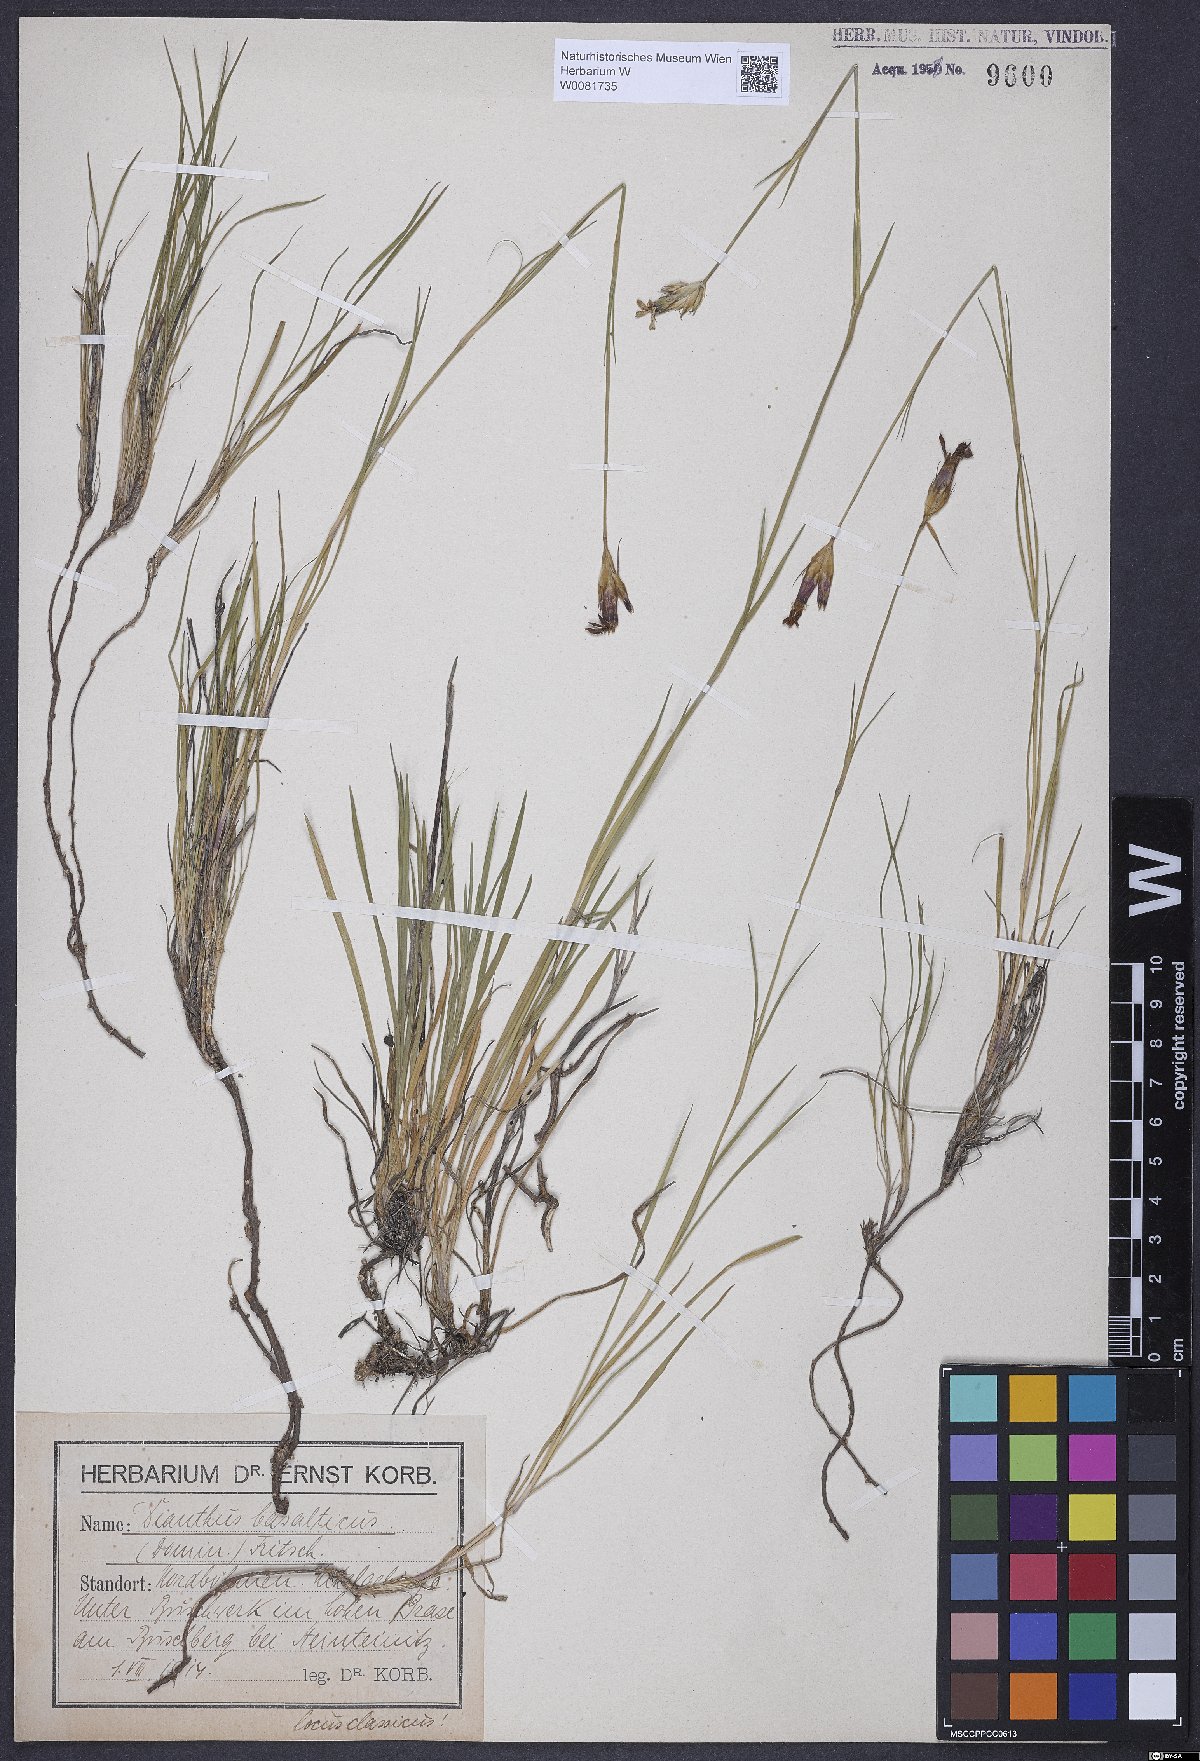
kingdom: Plantae
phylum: Tracheophyta
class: Magnoliopsida
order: Caryophyllales
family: Caryophyllaceae
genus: Dianthus
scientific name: Dianthus carthusianorum
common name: Carthusian pink
